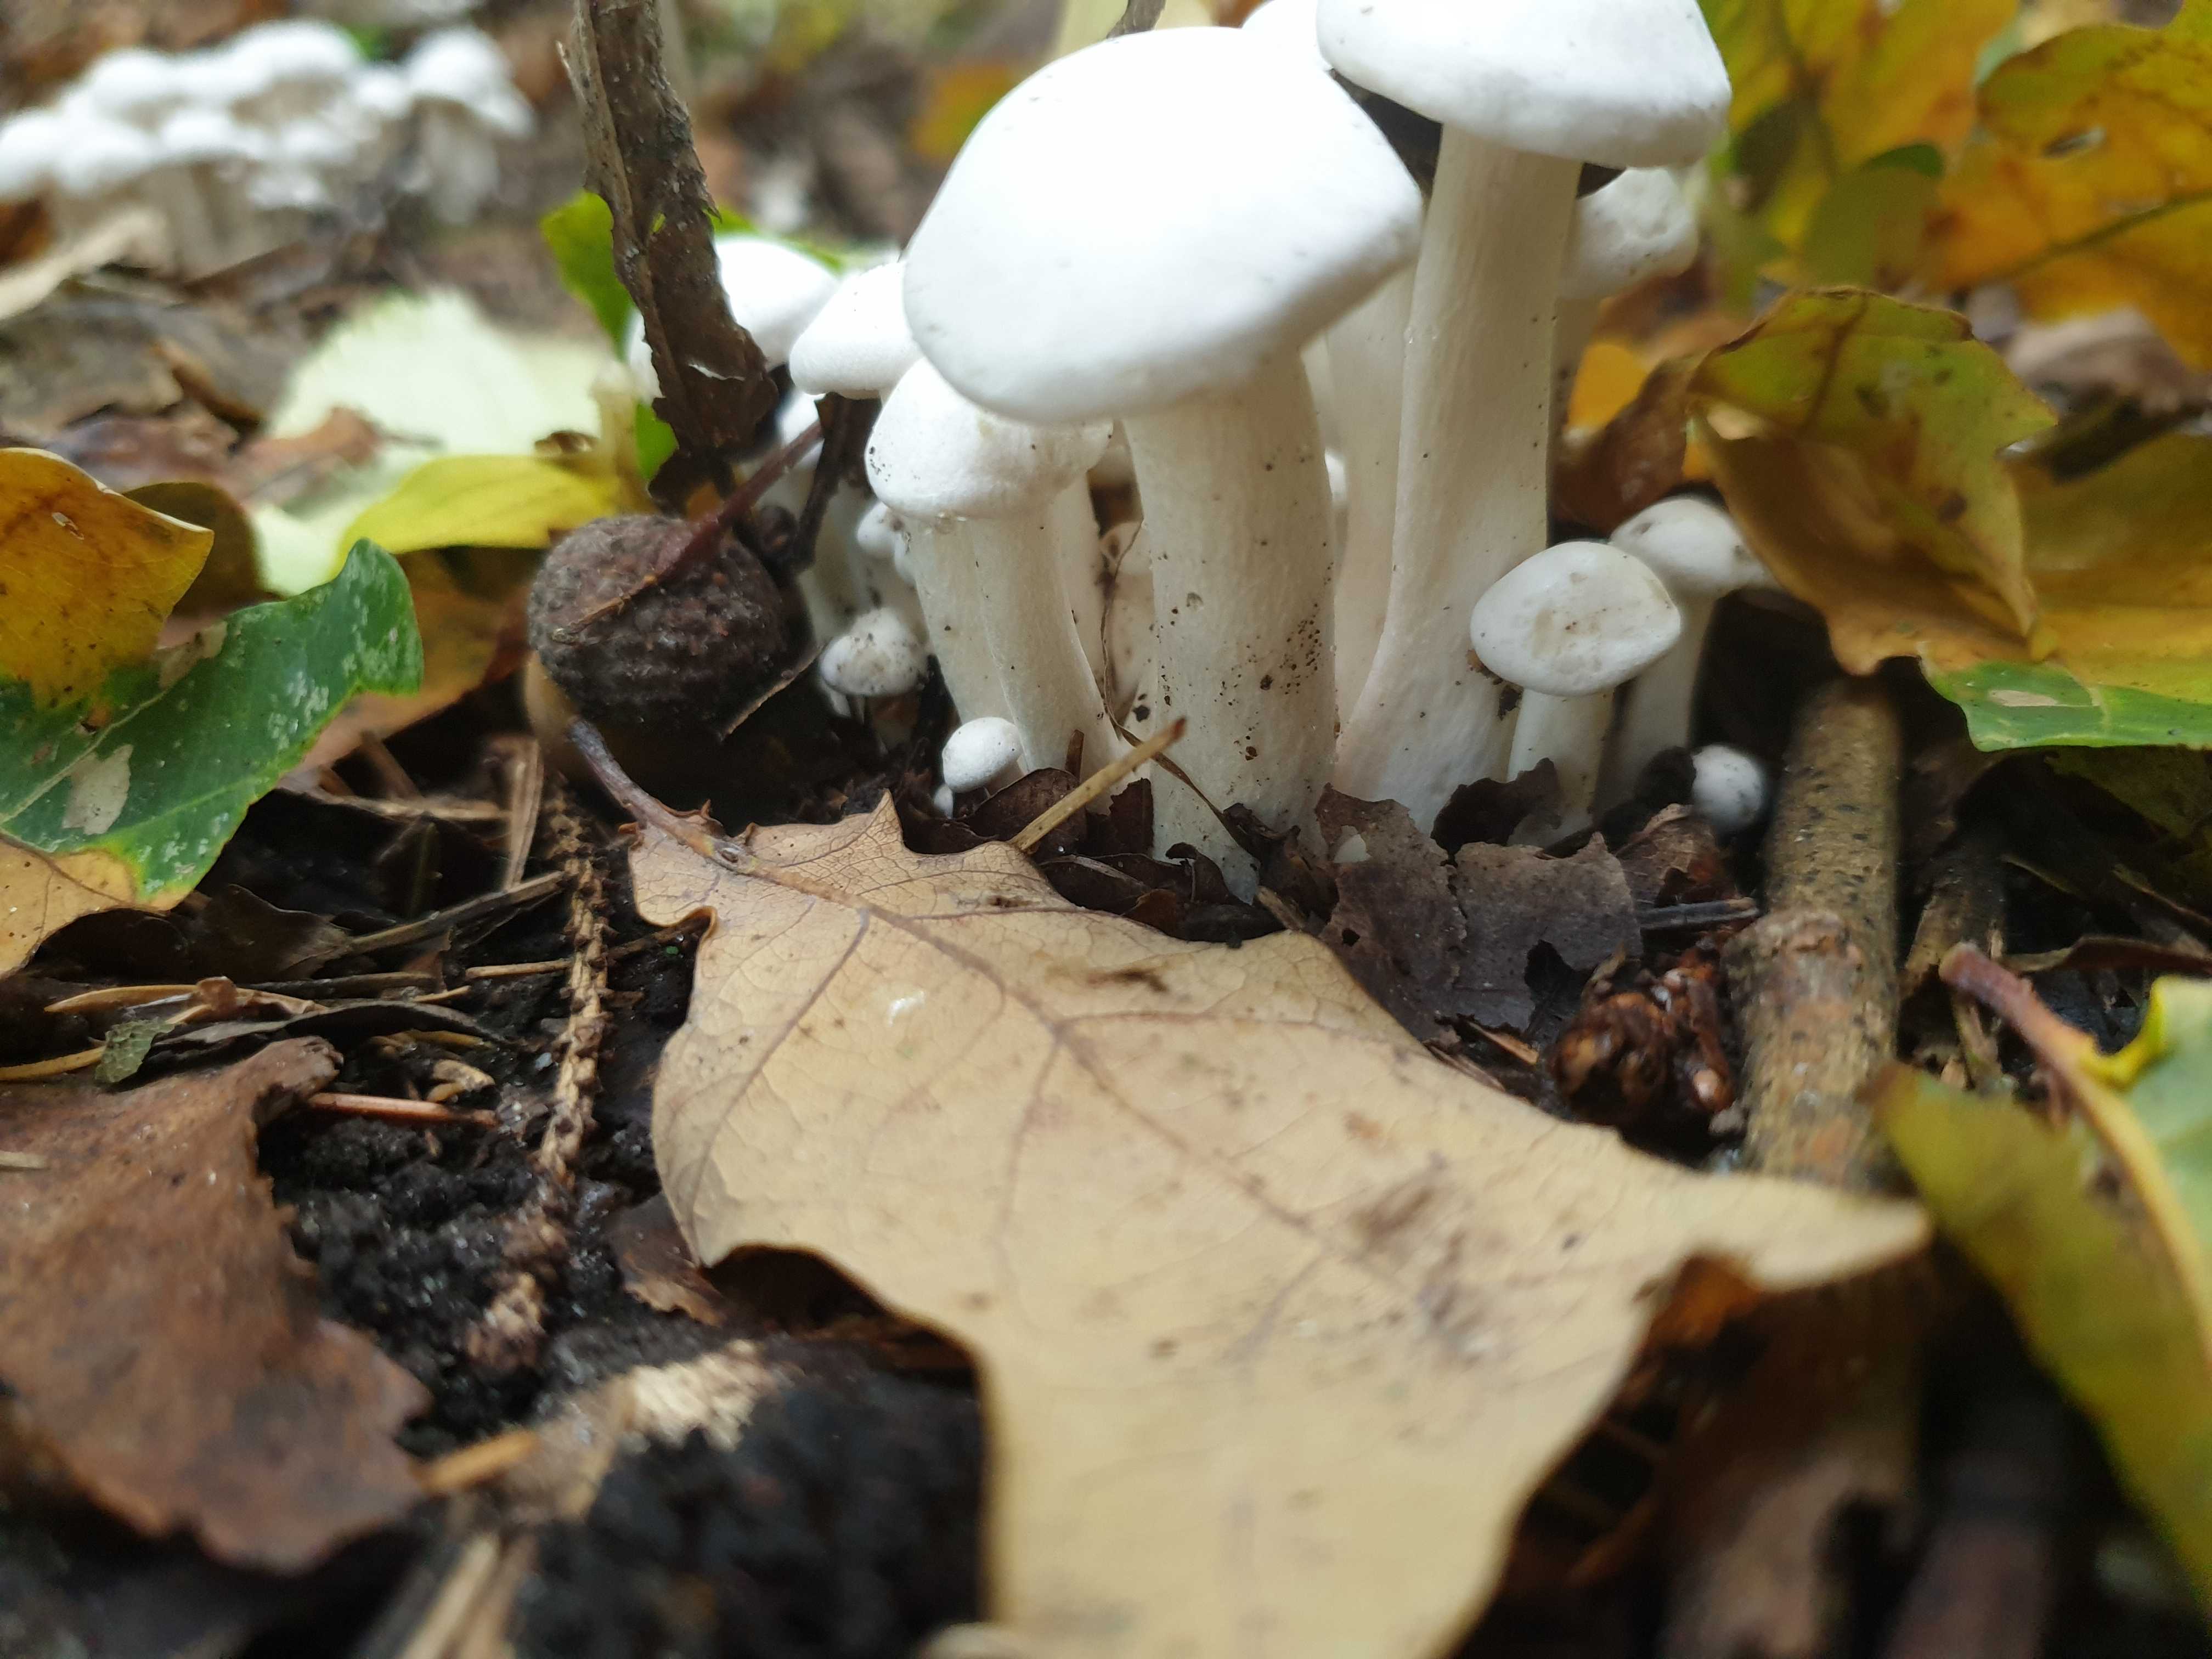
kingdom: Fungi
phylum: Basidiomycota
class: Agaricomycetes
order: Agaricales
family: Tricholomataceae
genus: Leucocybe
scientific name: Leucocybe connata
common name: knippe-tragthat
